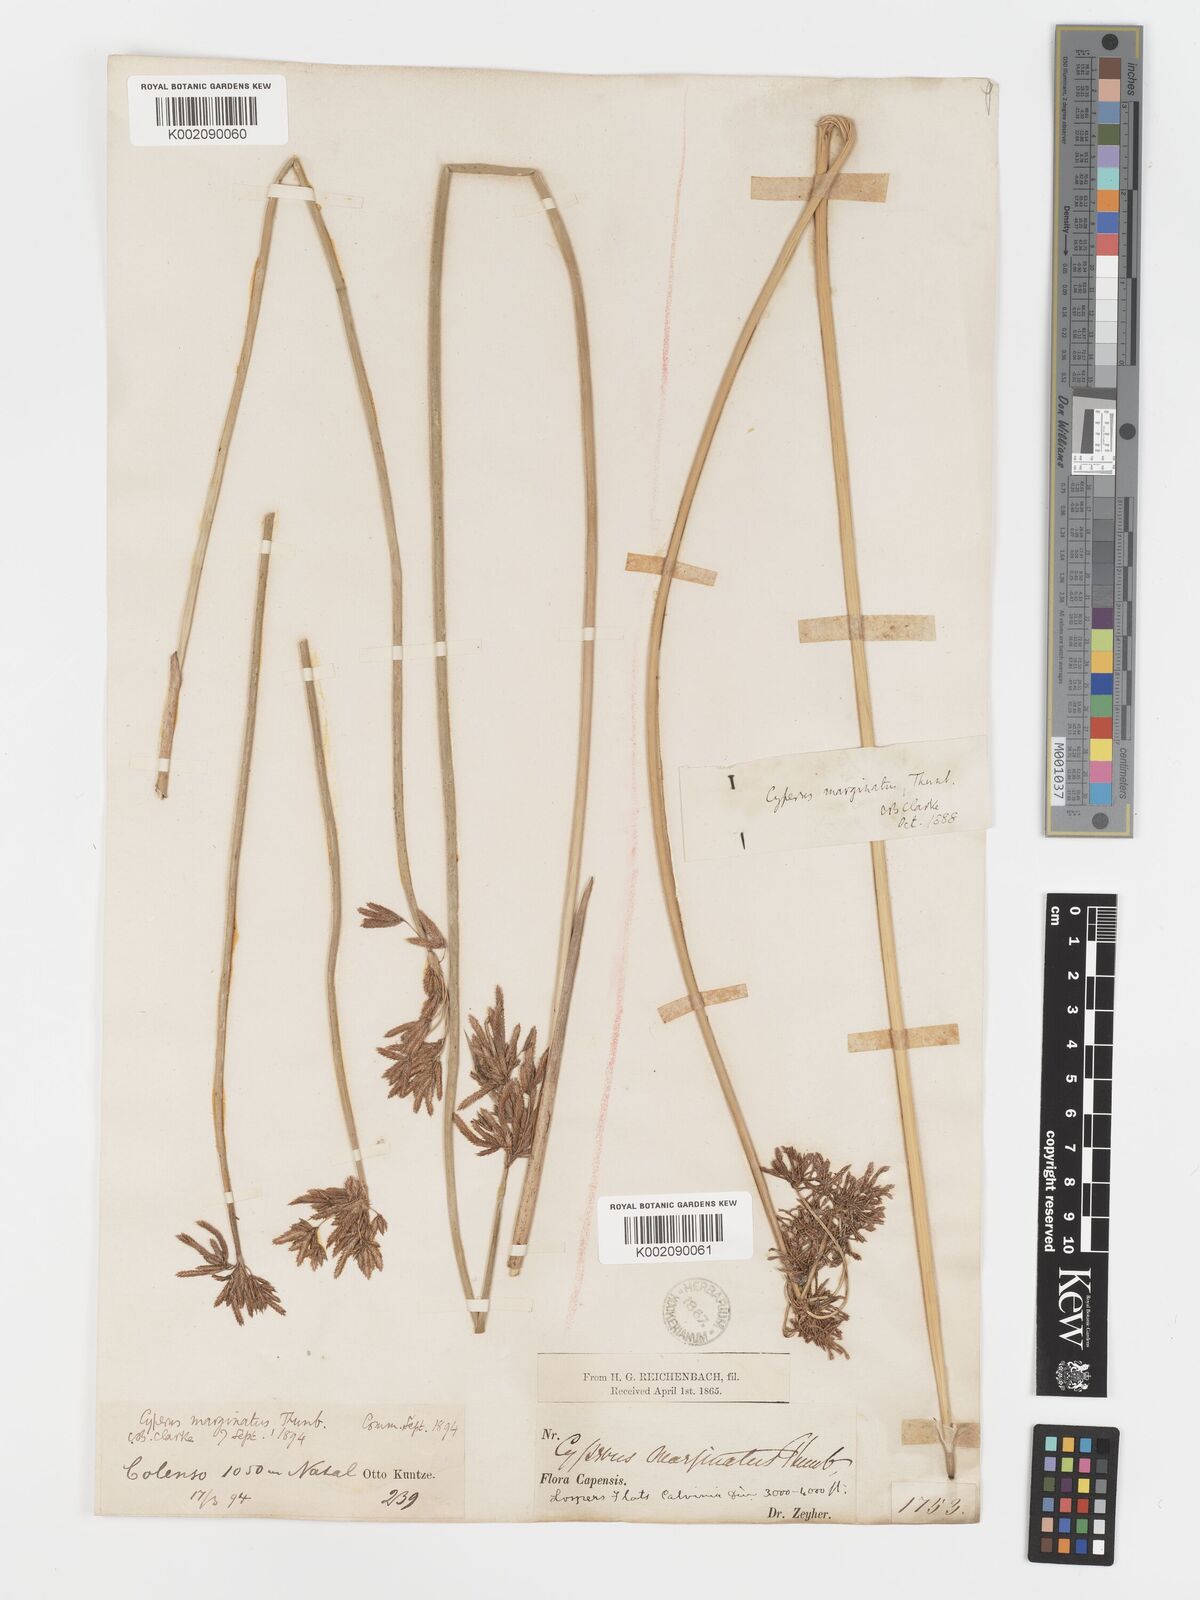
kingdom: Plantae
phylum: Tracheophyta
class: Liliopsida
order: Poales
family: Cyperaceae
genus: Cyperus
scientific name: Cyperus marginatus
